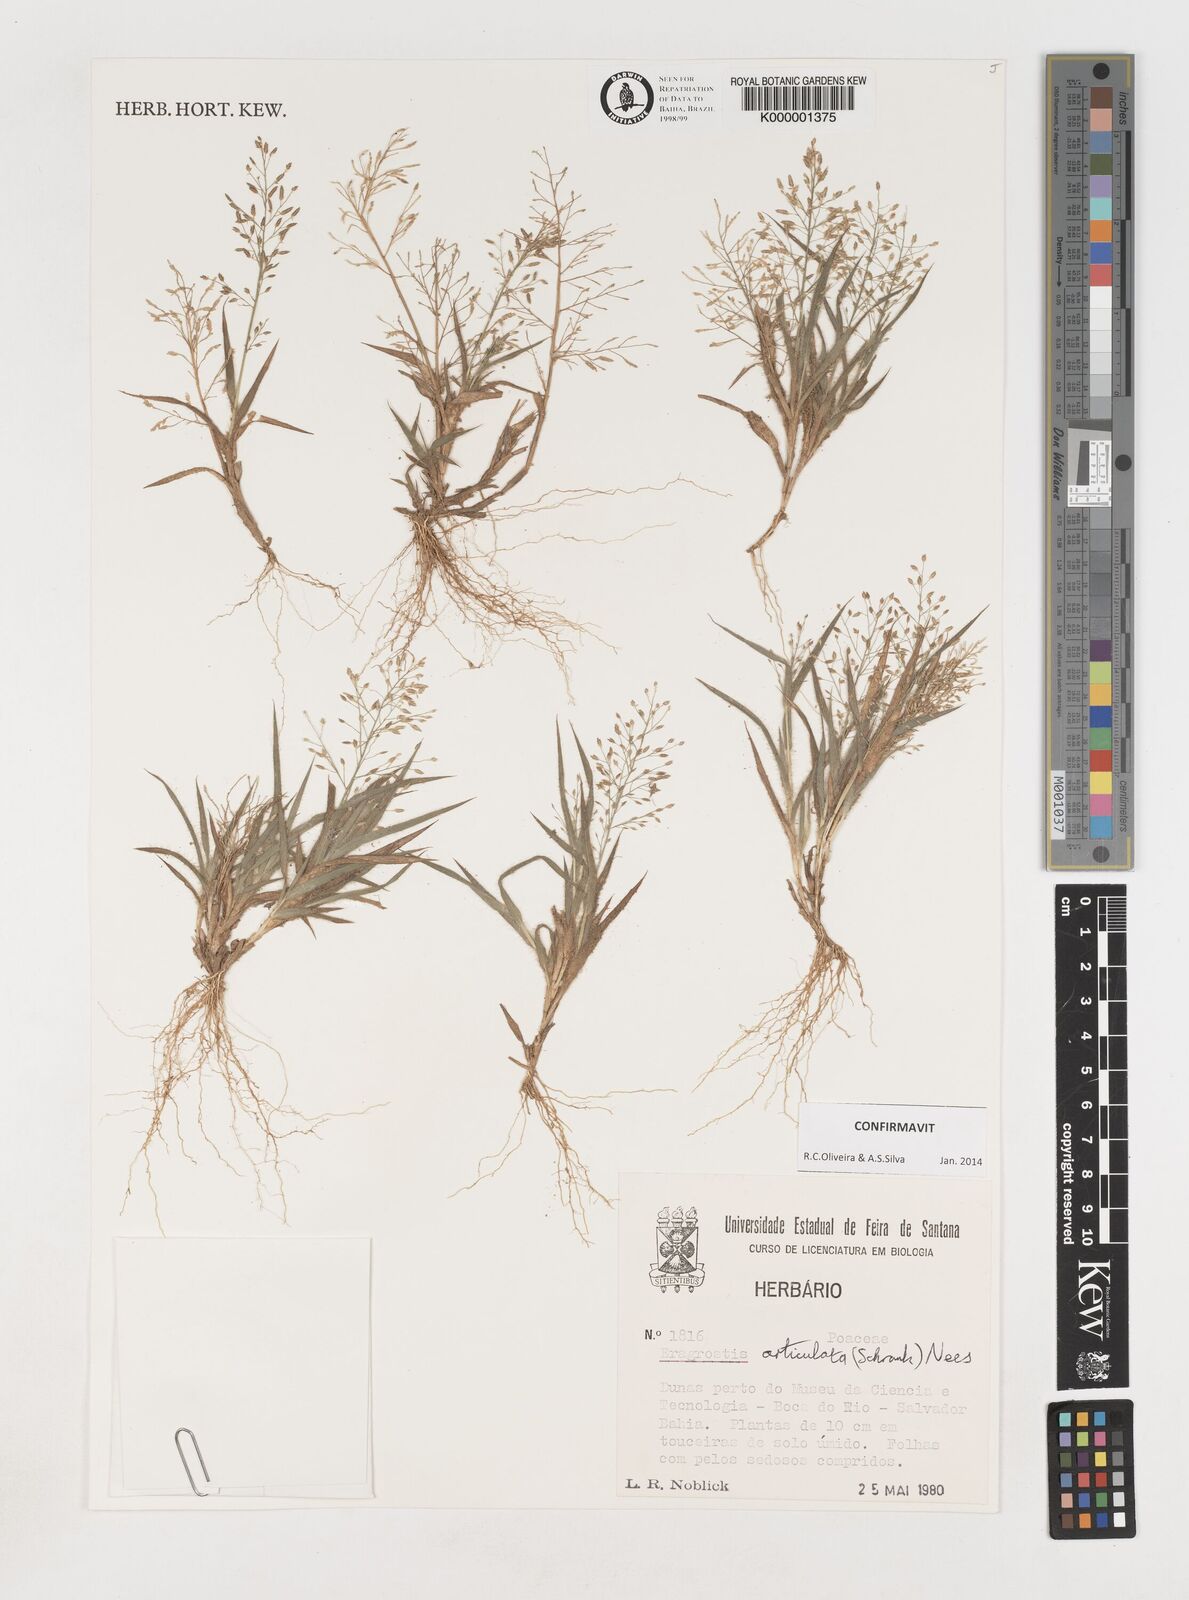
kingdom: Plantae
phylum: Tracheophyta
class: Liliopsida
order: Poales
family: Poaceae
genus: Eragrostis
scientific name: Eragrostis articulata
